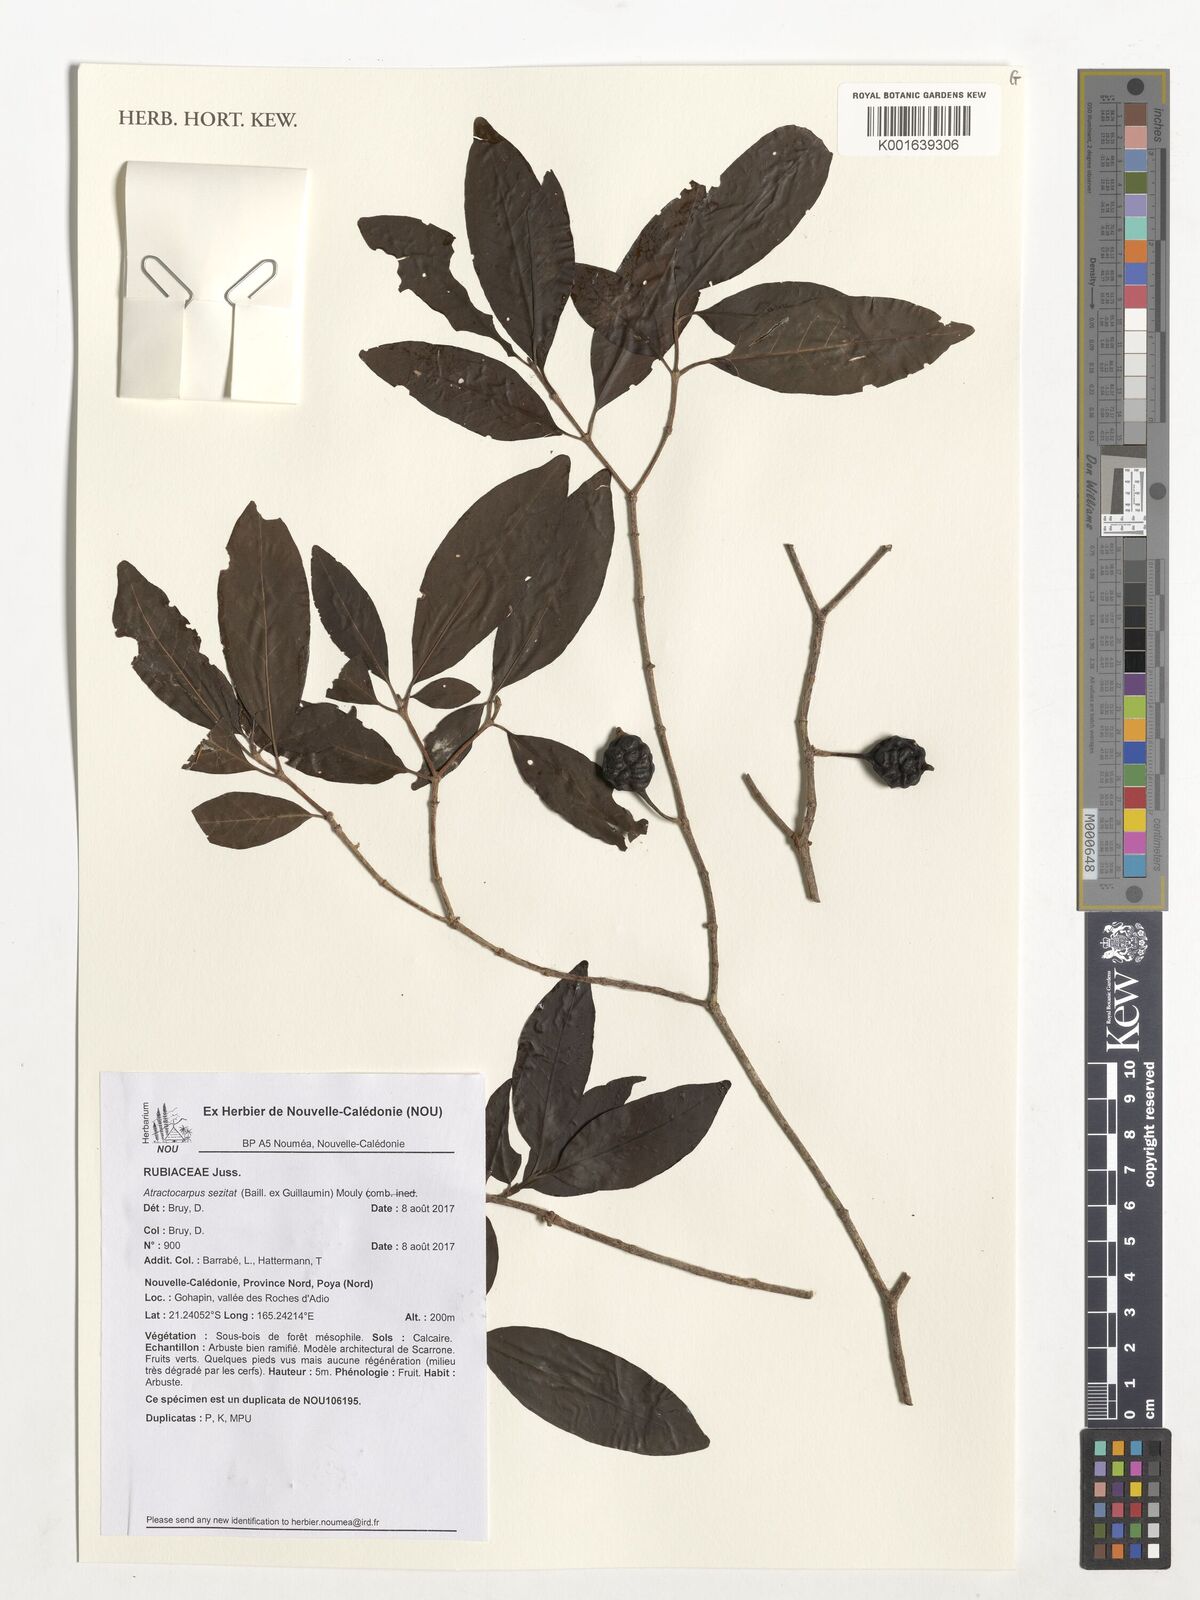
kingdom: Plantae
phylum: Tracheophyta
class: Magnoliopsida
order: Gentianales
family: Rubiaceae
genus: Atractocarpus
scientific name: Atractocarpus
